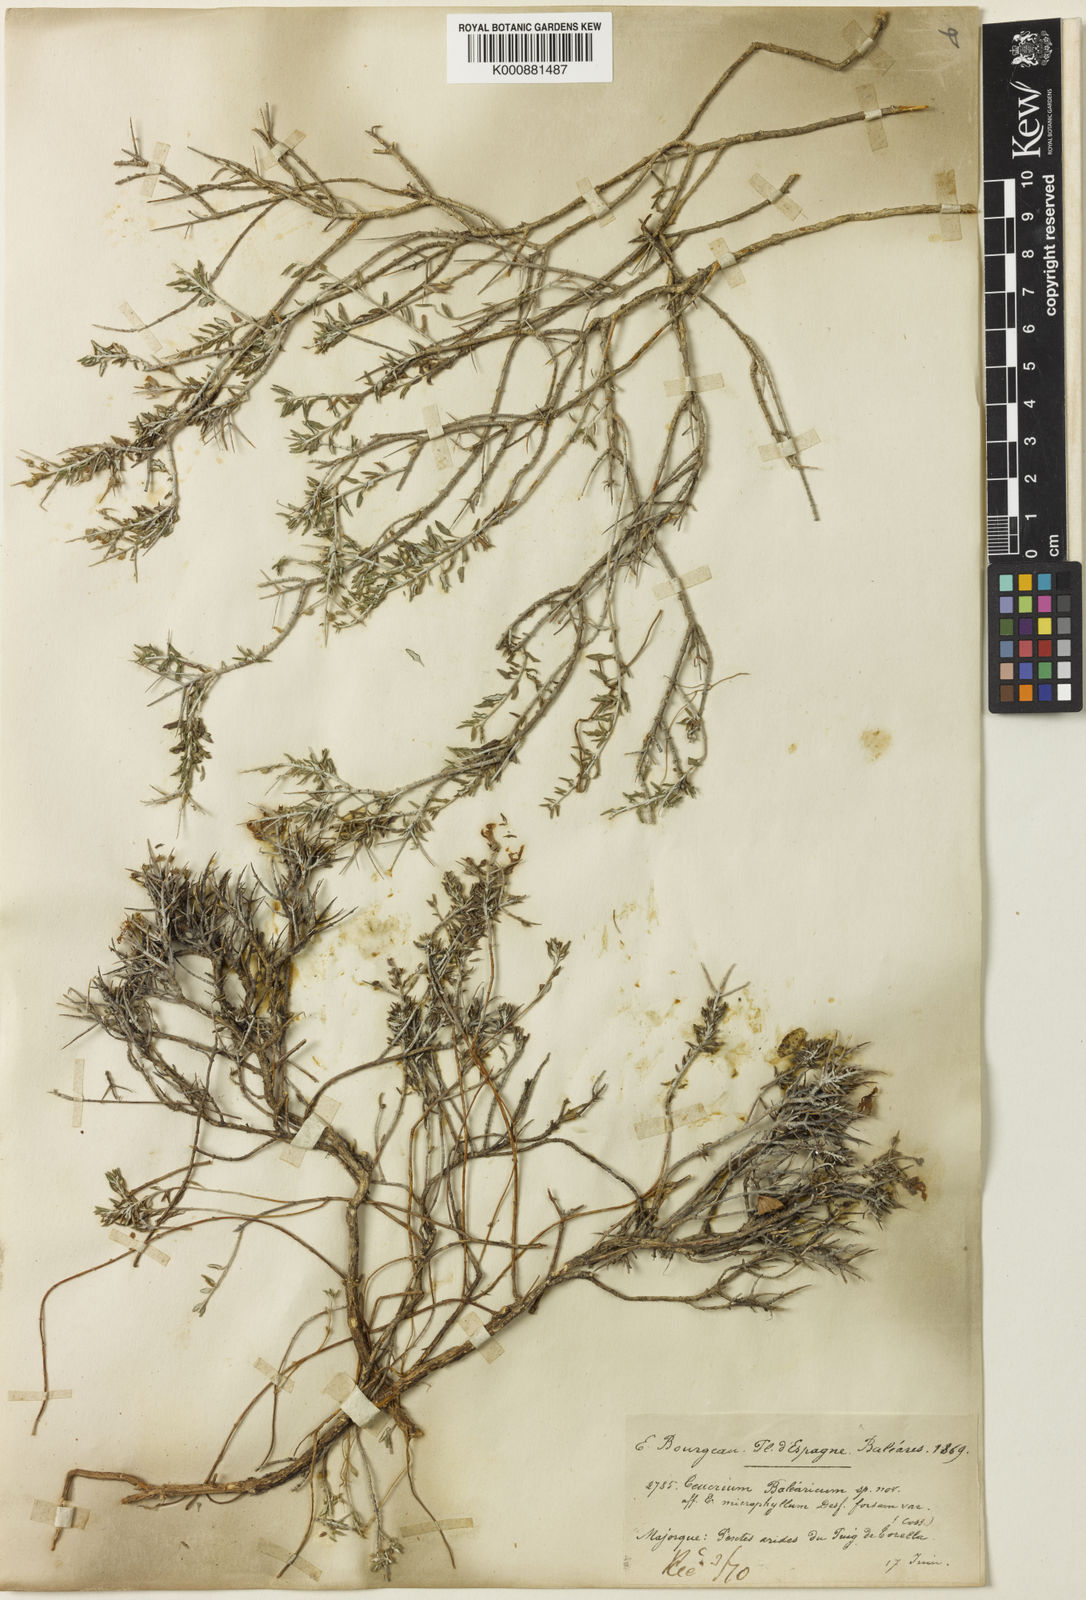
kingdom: Plantae
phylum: Tracheophyta
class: Magnoliopsida
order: Lamiales
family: Lamiaceae
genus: Teucrium
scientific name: Teucrium subspinosum
